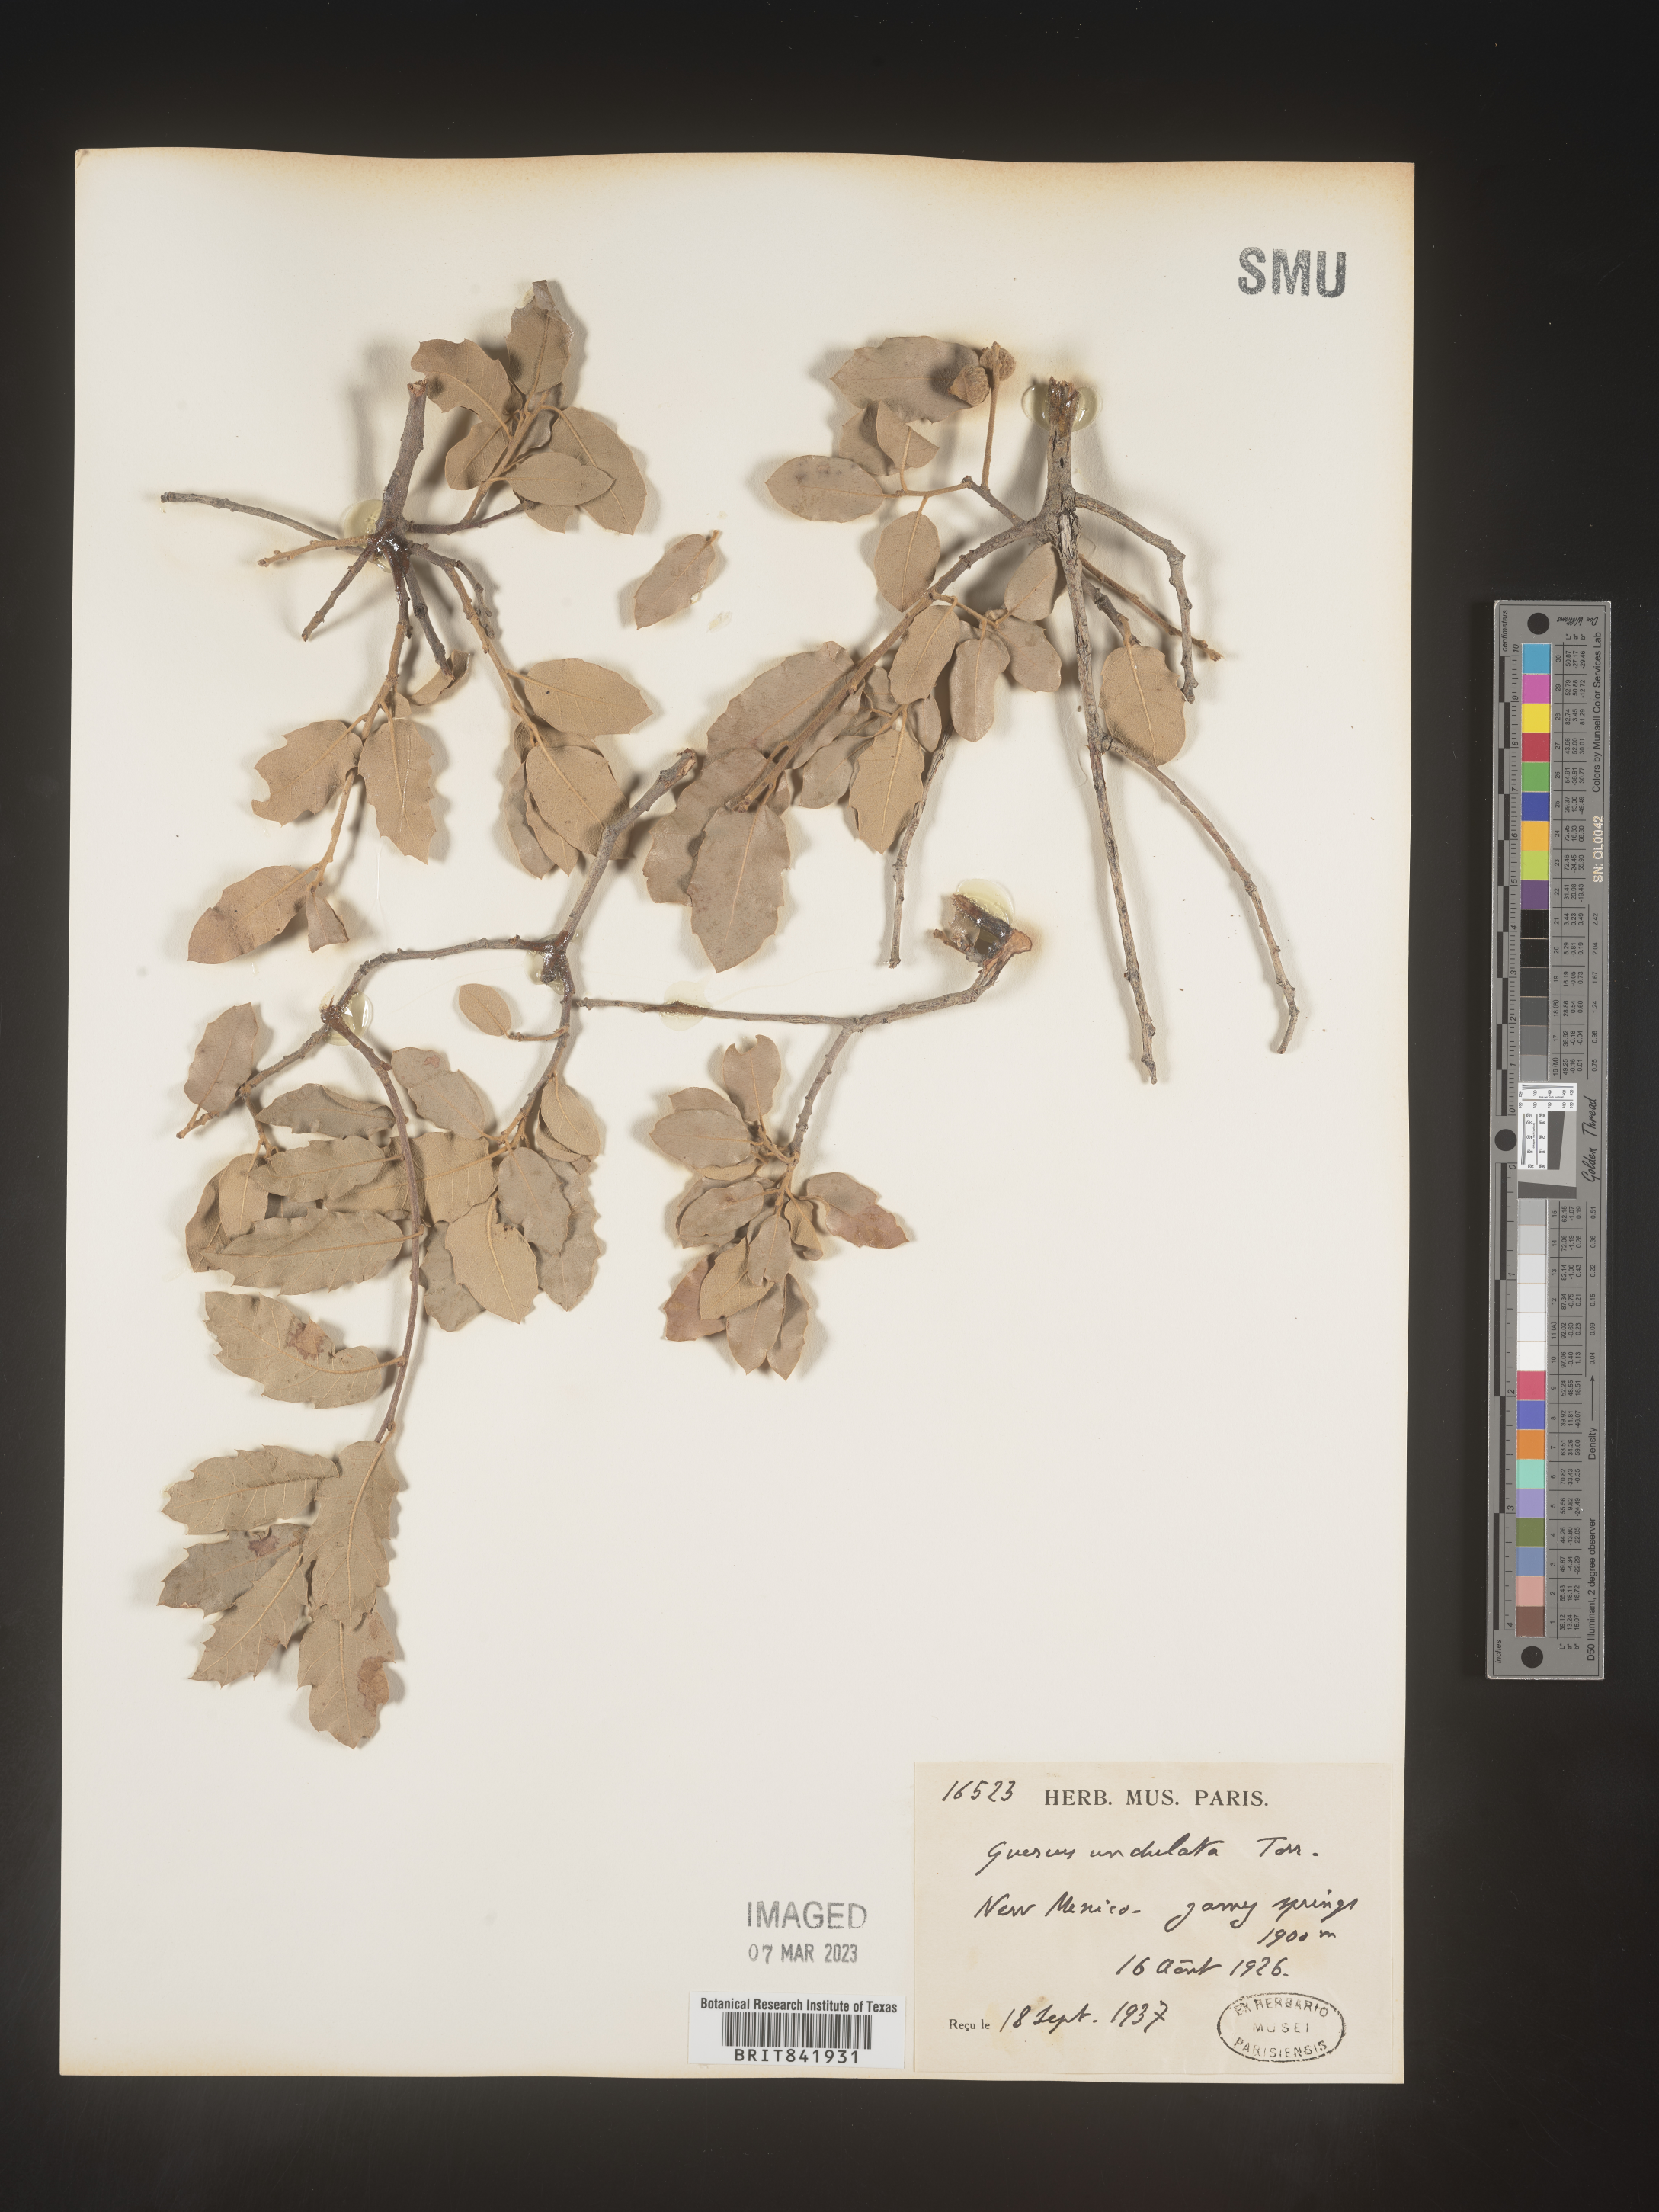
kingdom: Plantae
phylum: Tracheophyta
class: Magnoliopsida
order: Fagales
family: Fagaceae
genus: Quercus
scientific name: Quercus undulata
